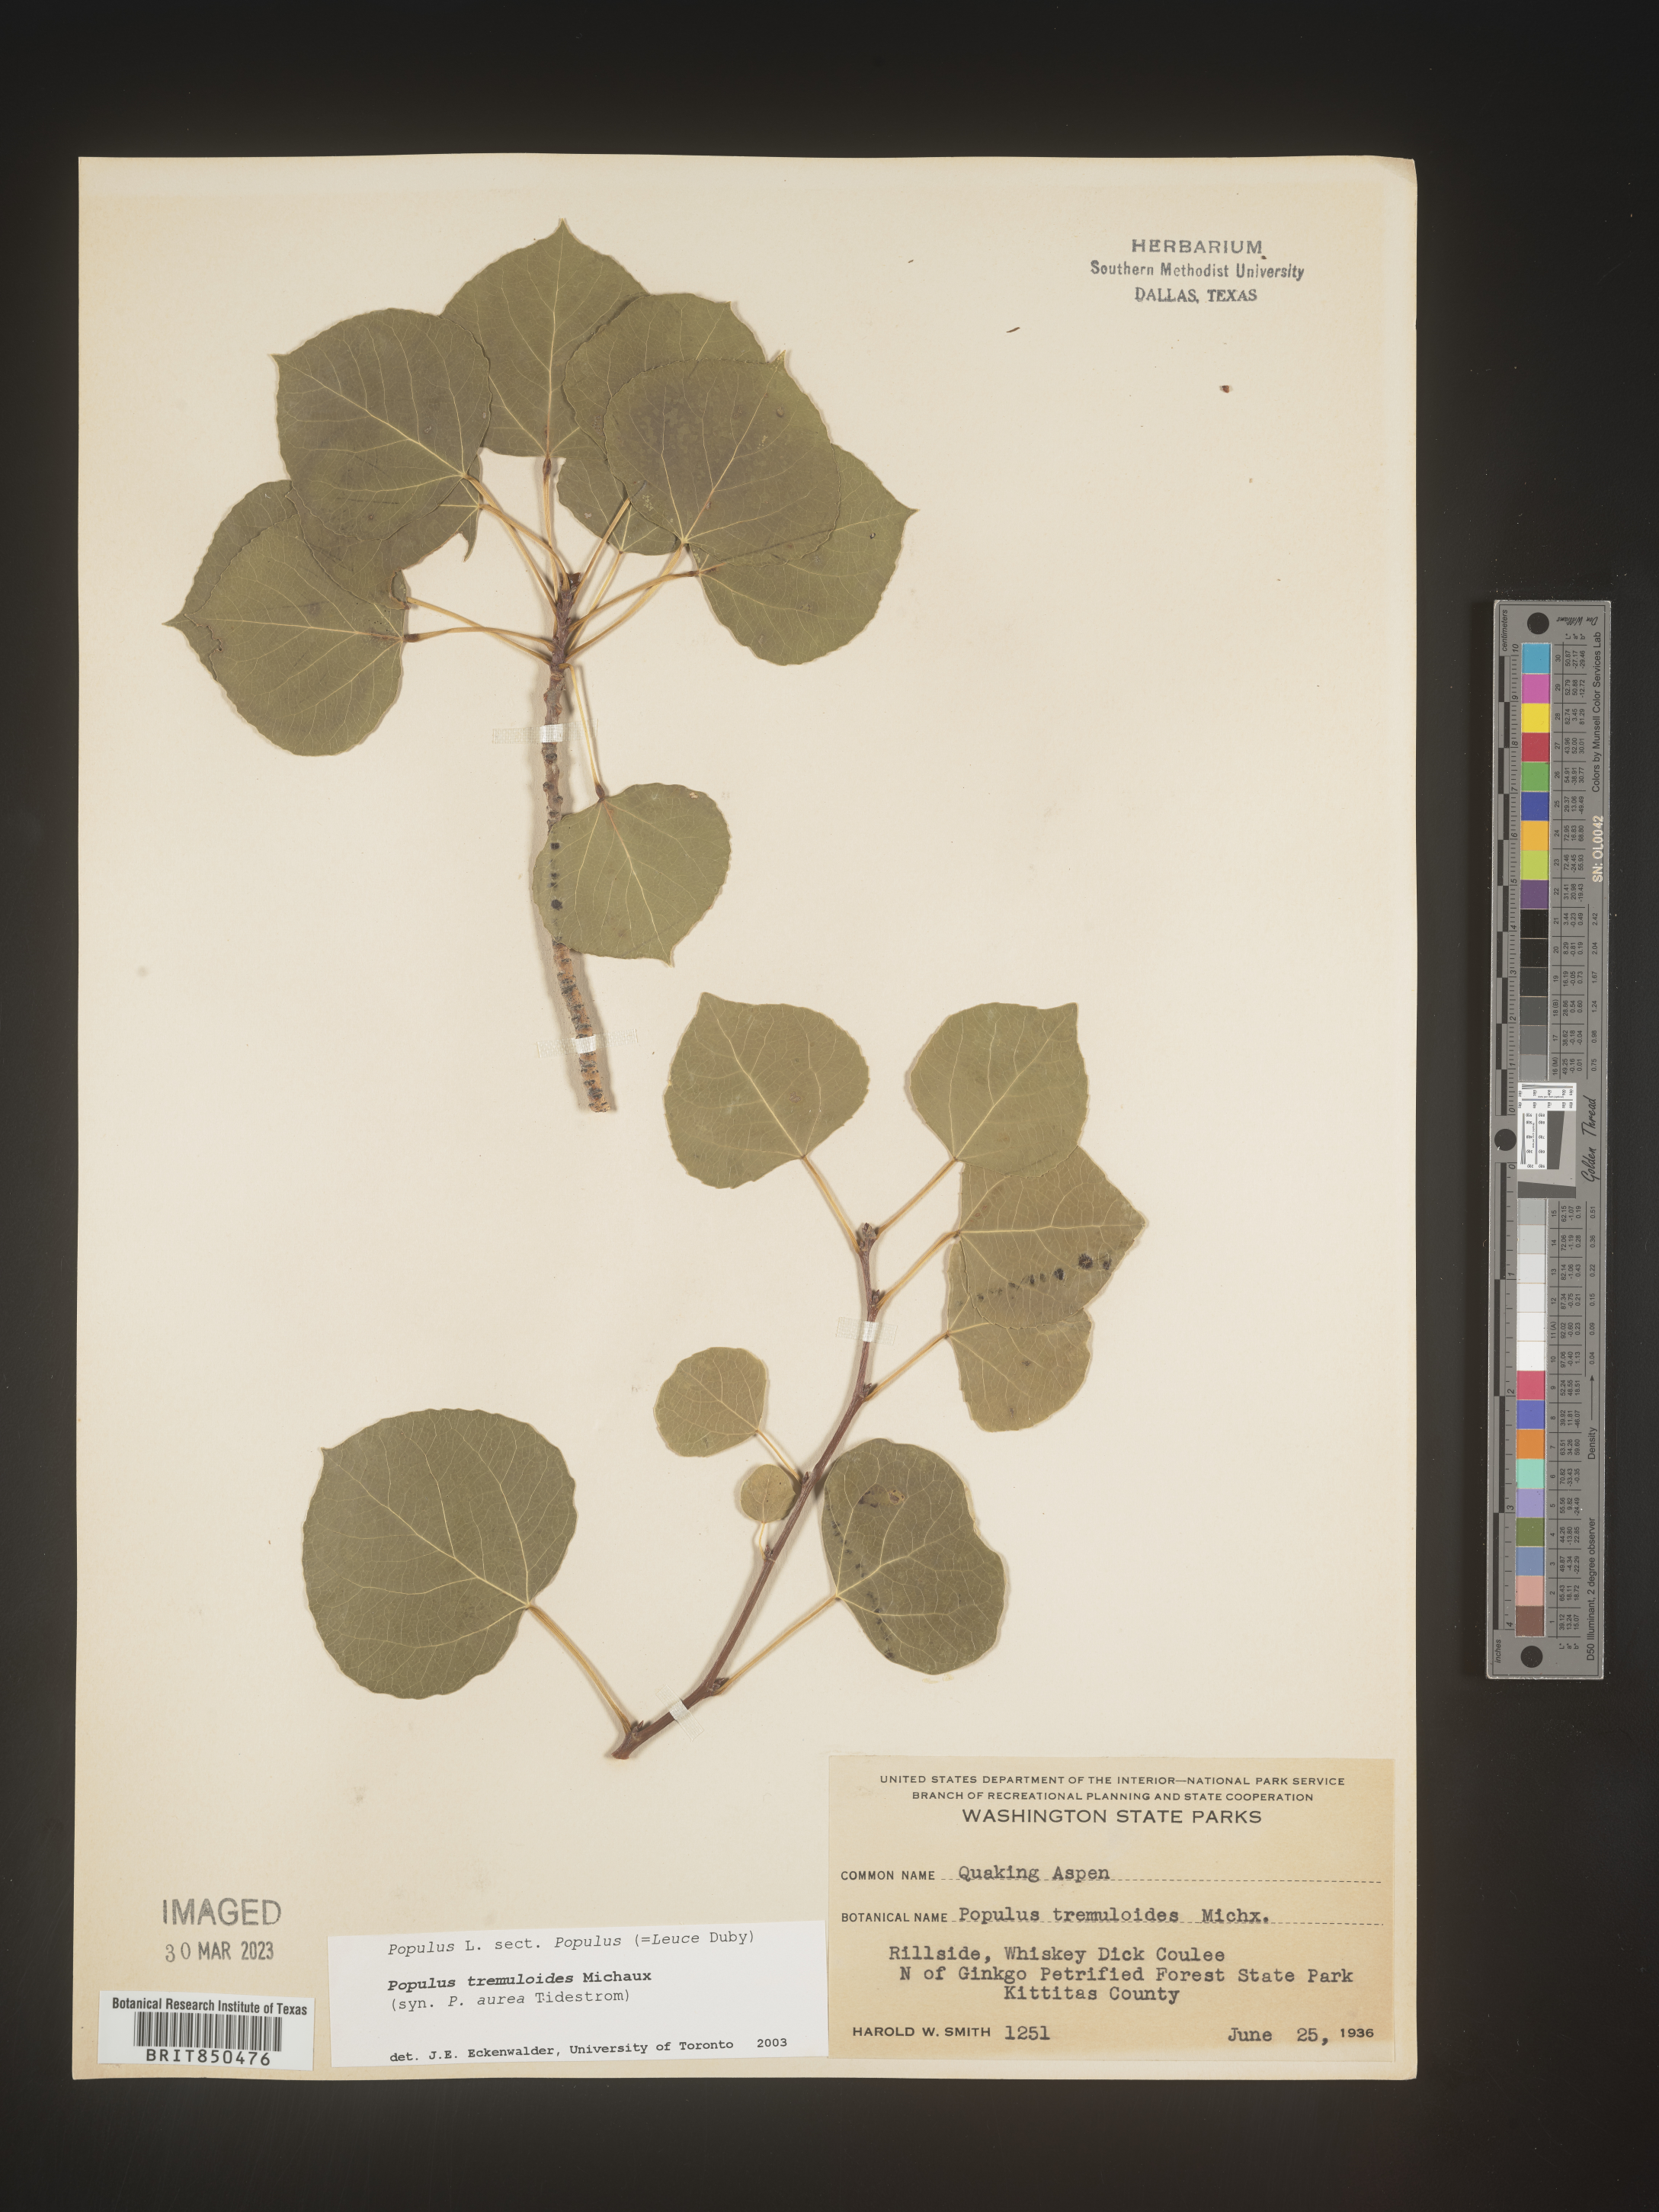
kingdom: Plantae
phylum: Tracheophyta
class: Magnoliopsida
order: Malpighiales
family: Salicaceae
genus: Populus
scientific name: Populus tremuloides
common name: Quaking aspen
